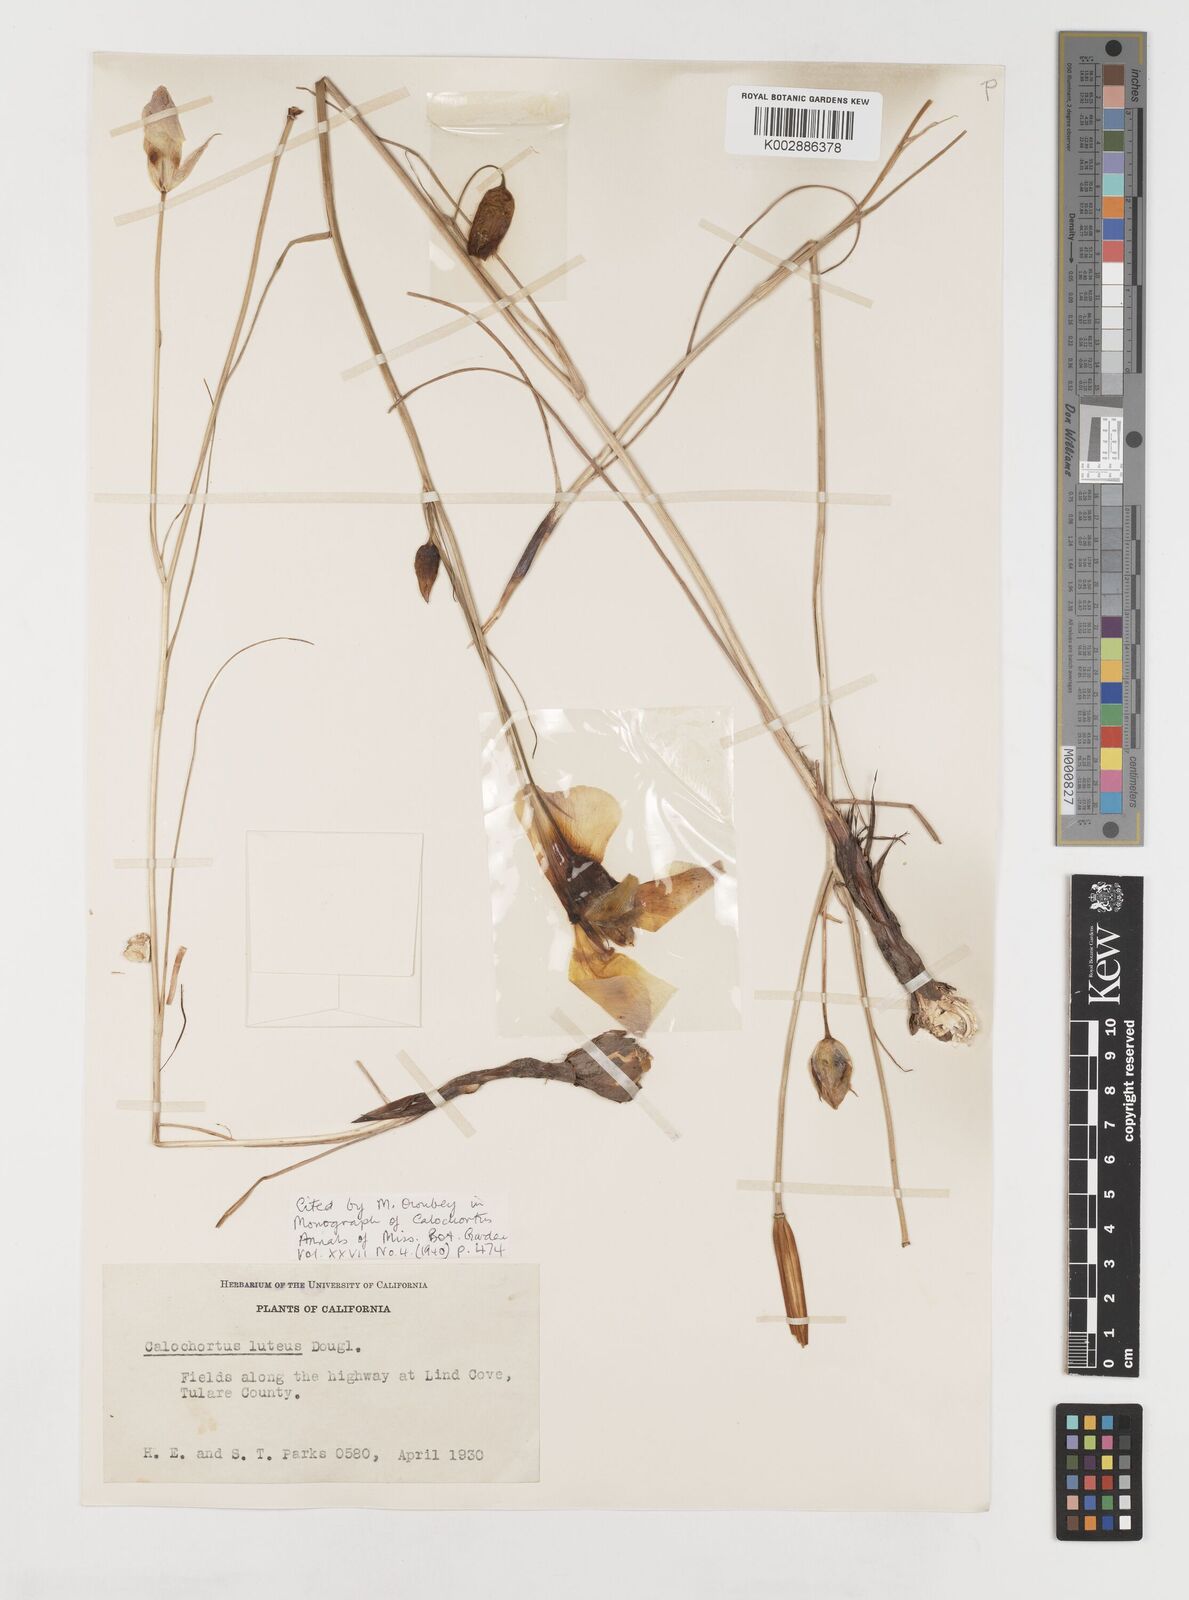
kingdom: Plantae
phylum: Tracheophyta
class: Liliopsida
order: Liliales
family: Liliaceae
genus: Calochortus
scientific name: Calochortus nuttallii
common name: Sego-lily
